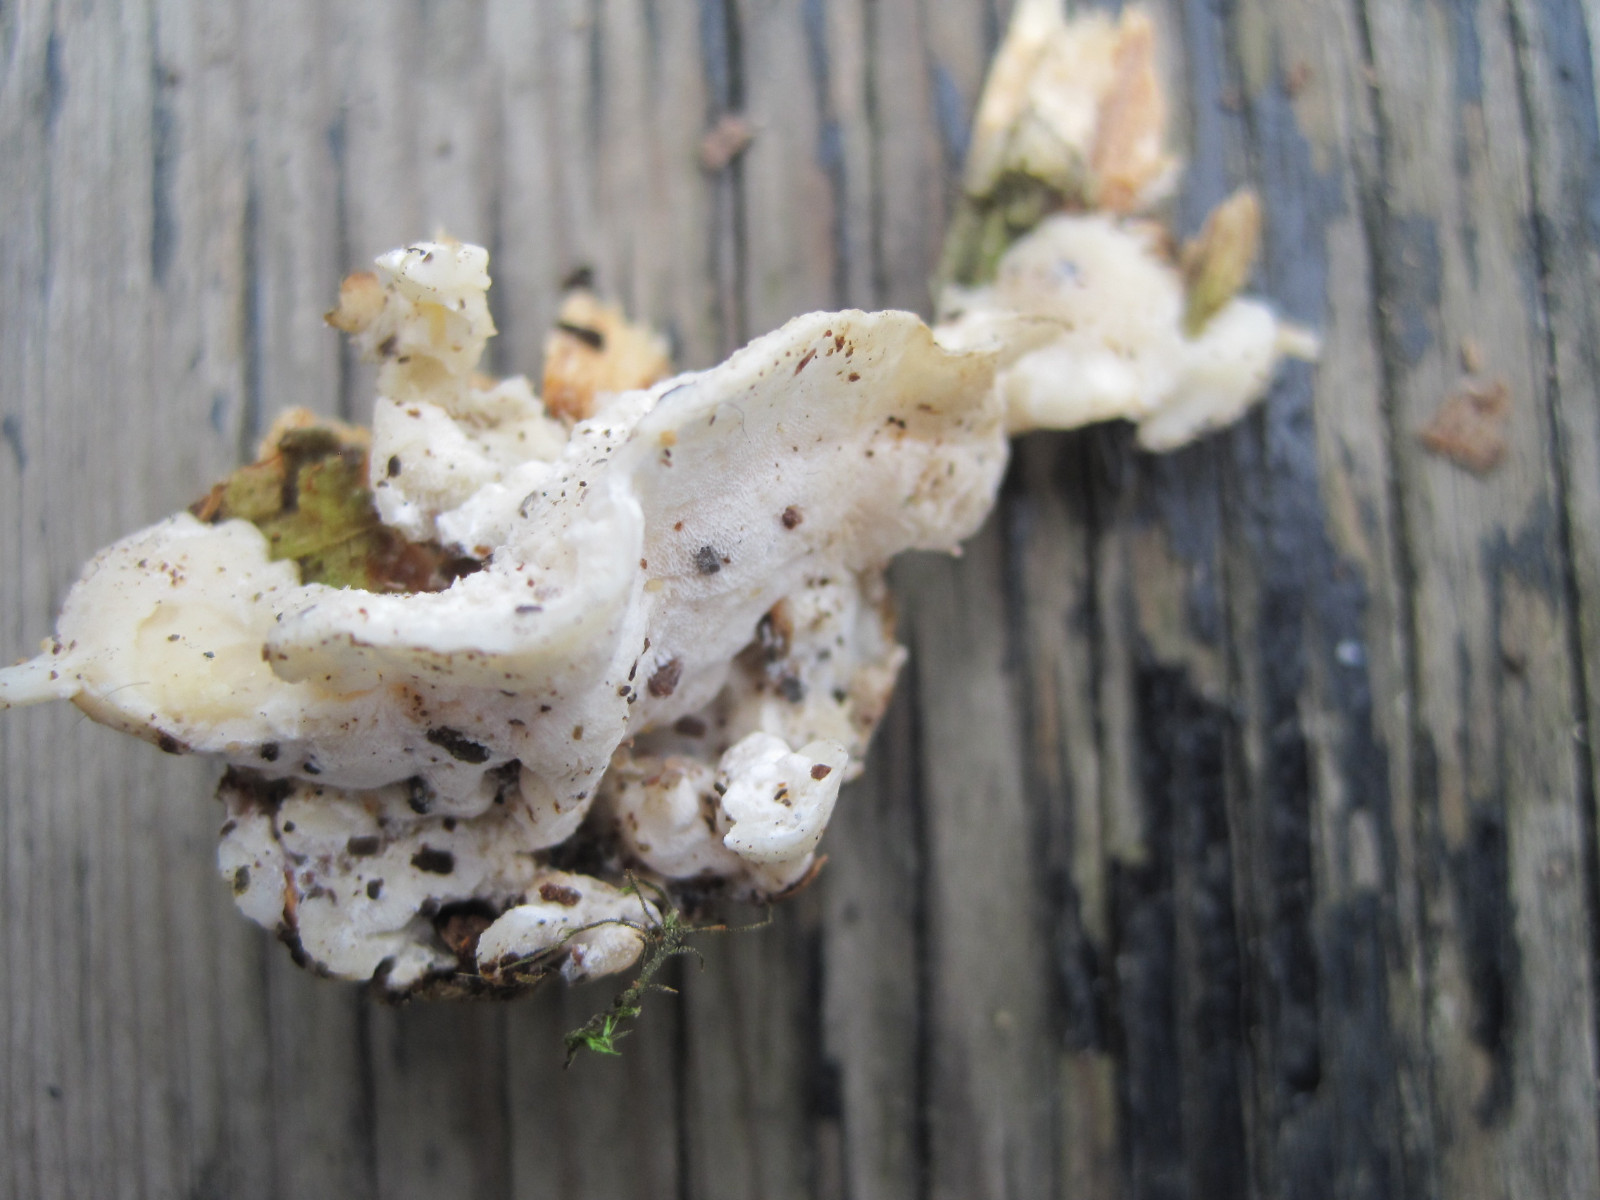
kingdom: Fungi
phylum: Basidiomycota
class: Agaricomycetes
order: Polyporales
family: Incrustoporiaceae
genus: Tyromyces
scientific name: Tyromyces lacteus
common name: mælkehvid kødporesvamp
